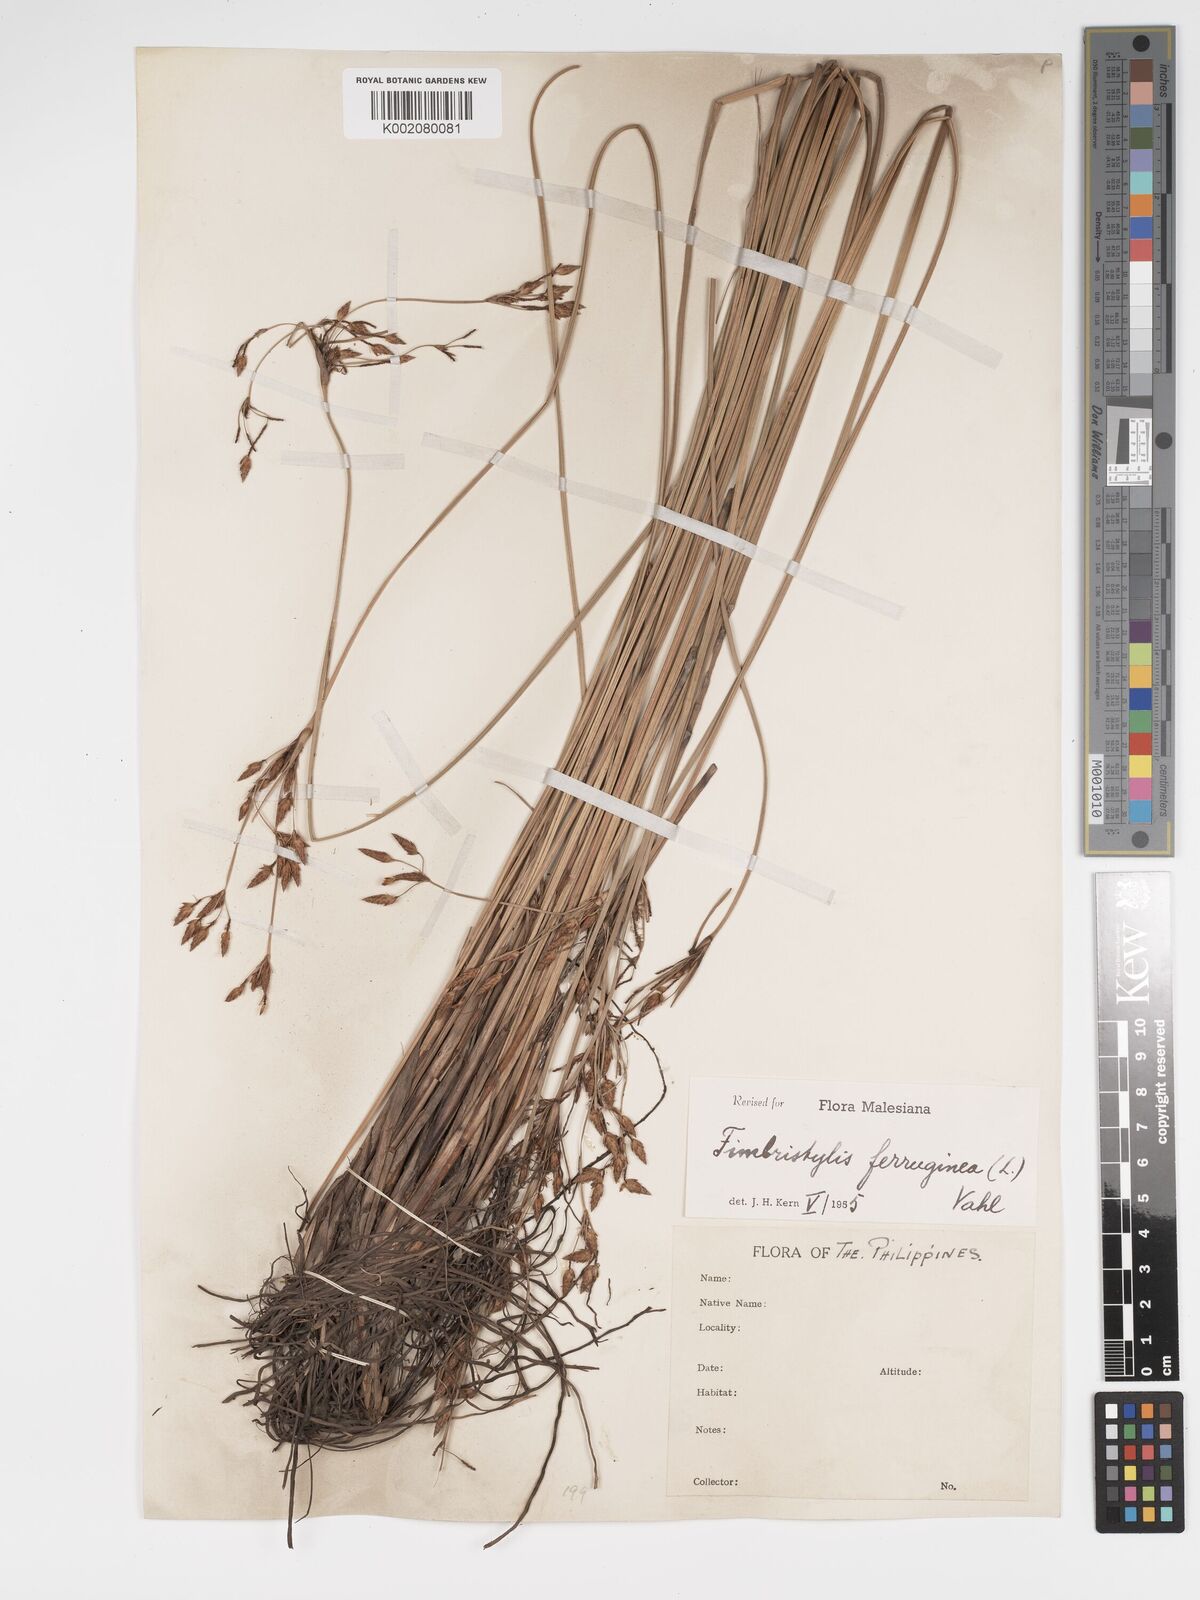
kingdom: Plantae
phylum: Tracheophyta
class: Liliopsida
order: Poales
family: Cyperaceae
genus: Fimbristylis
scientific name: Fimbristylis ferruginea
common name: West indian fimbry
